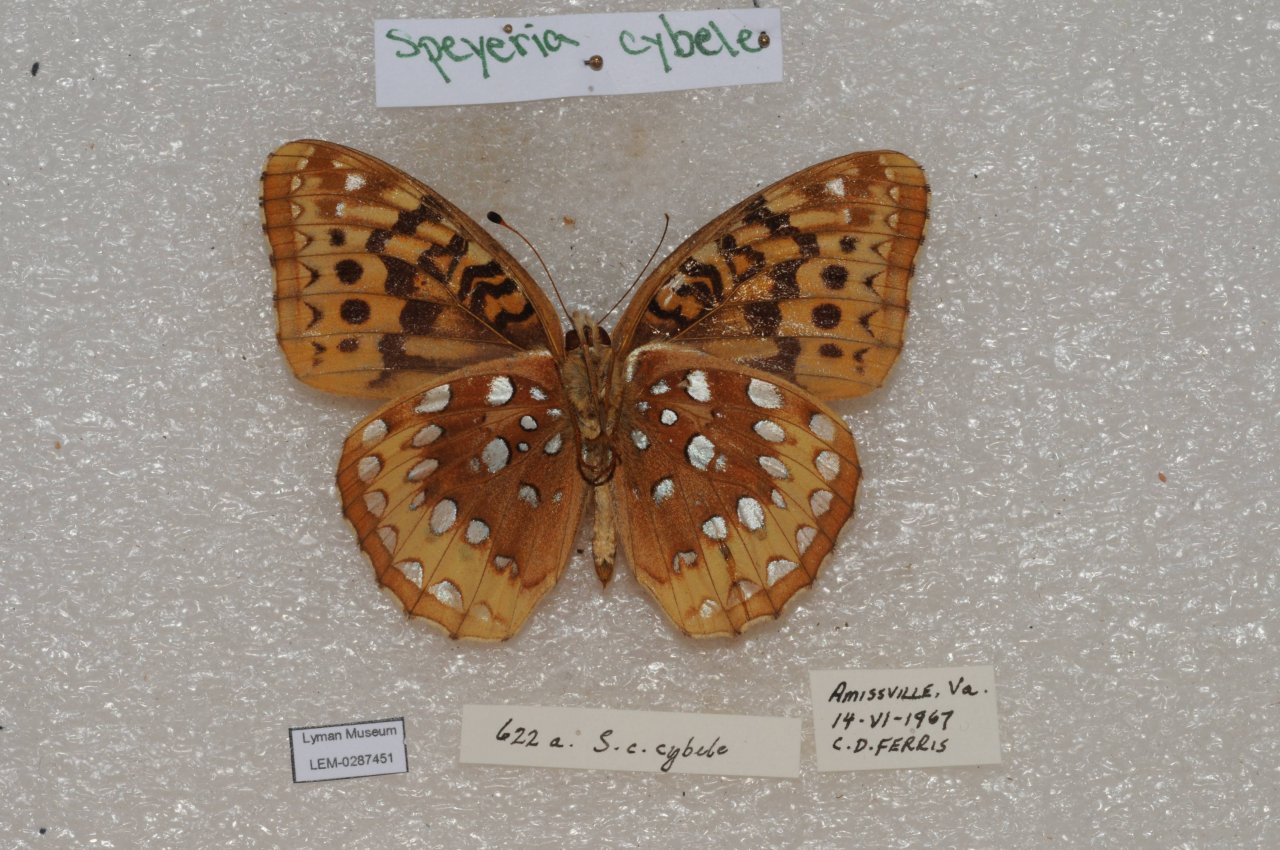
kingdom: Animalia
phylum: Arthropoda
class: Insecta
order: Lepidoptera
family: Nymphalidae
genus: Speyeria
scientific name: Speyeria cybele
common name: Great Spangled Fritillary
